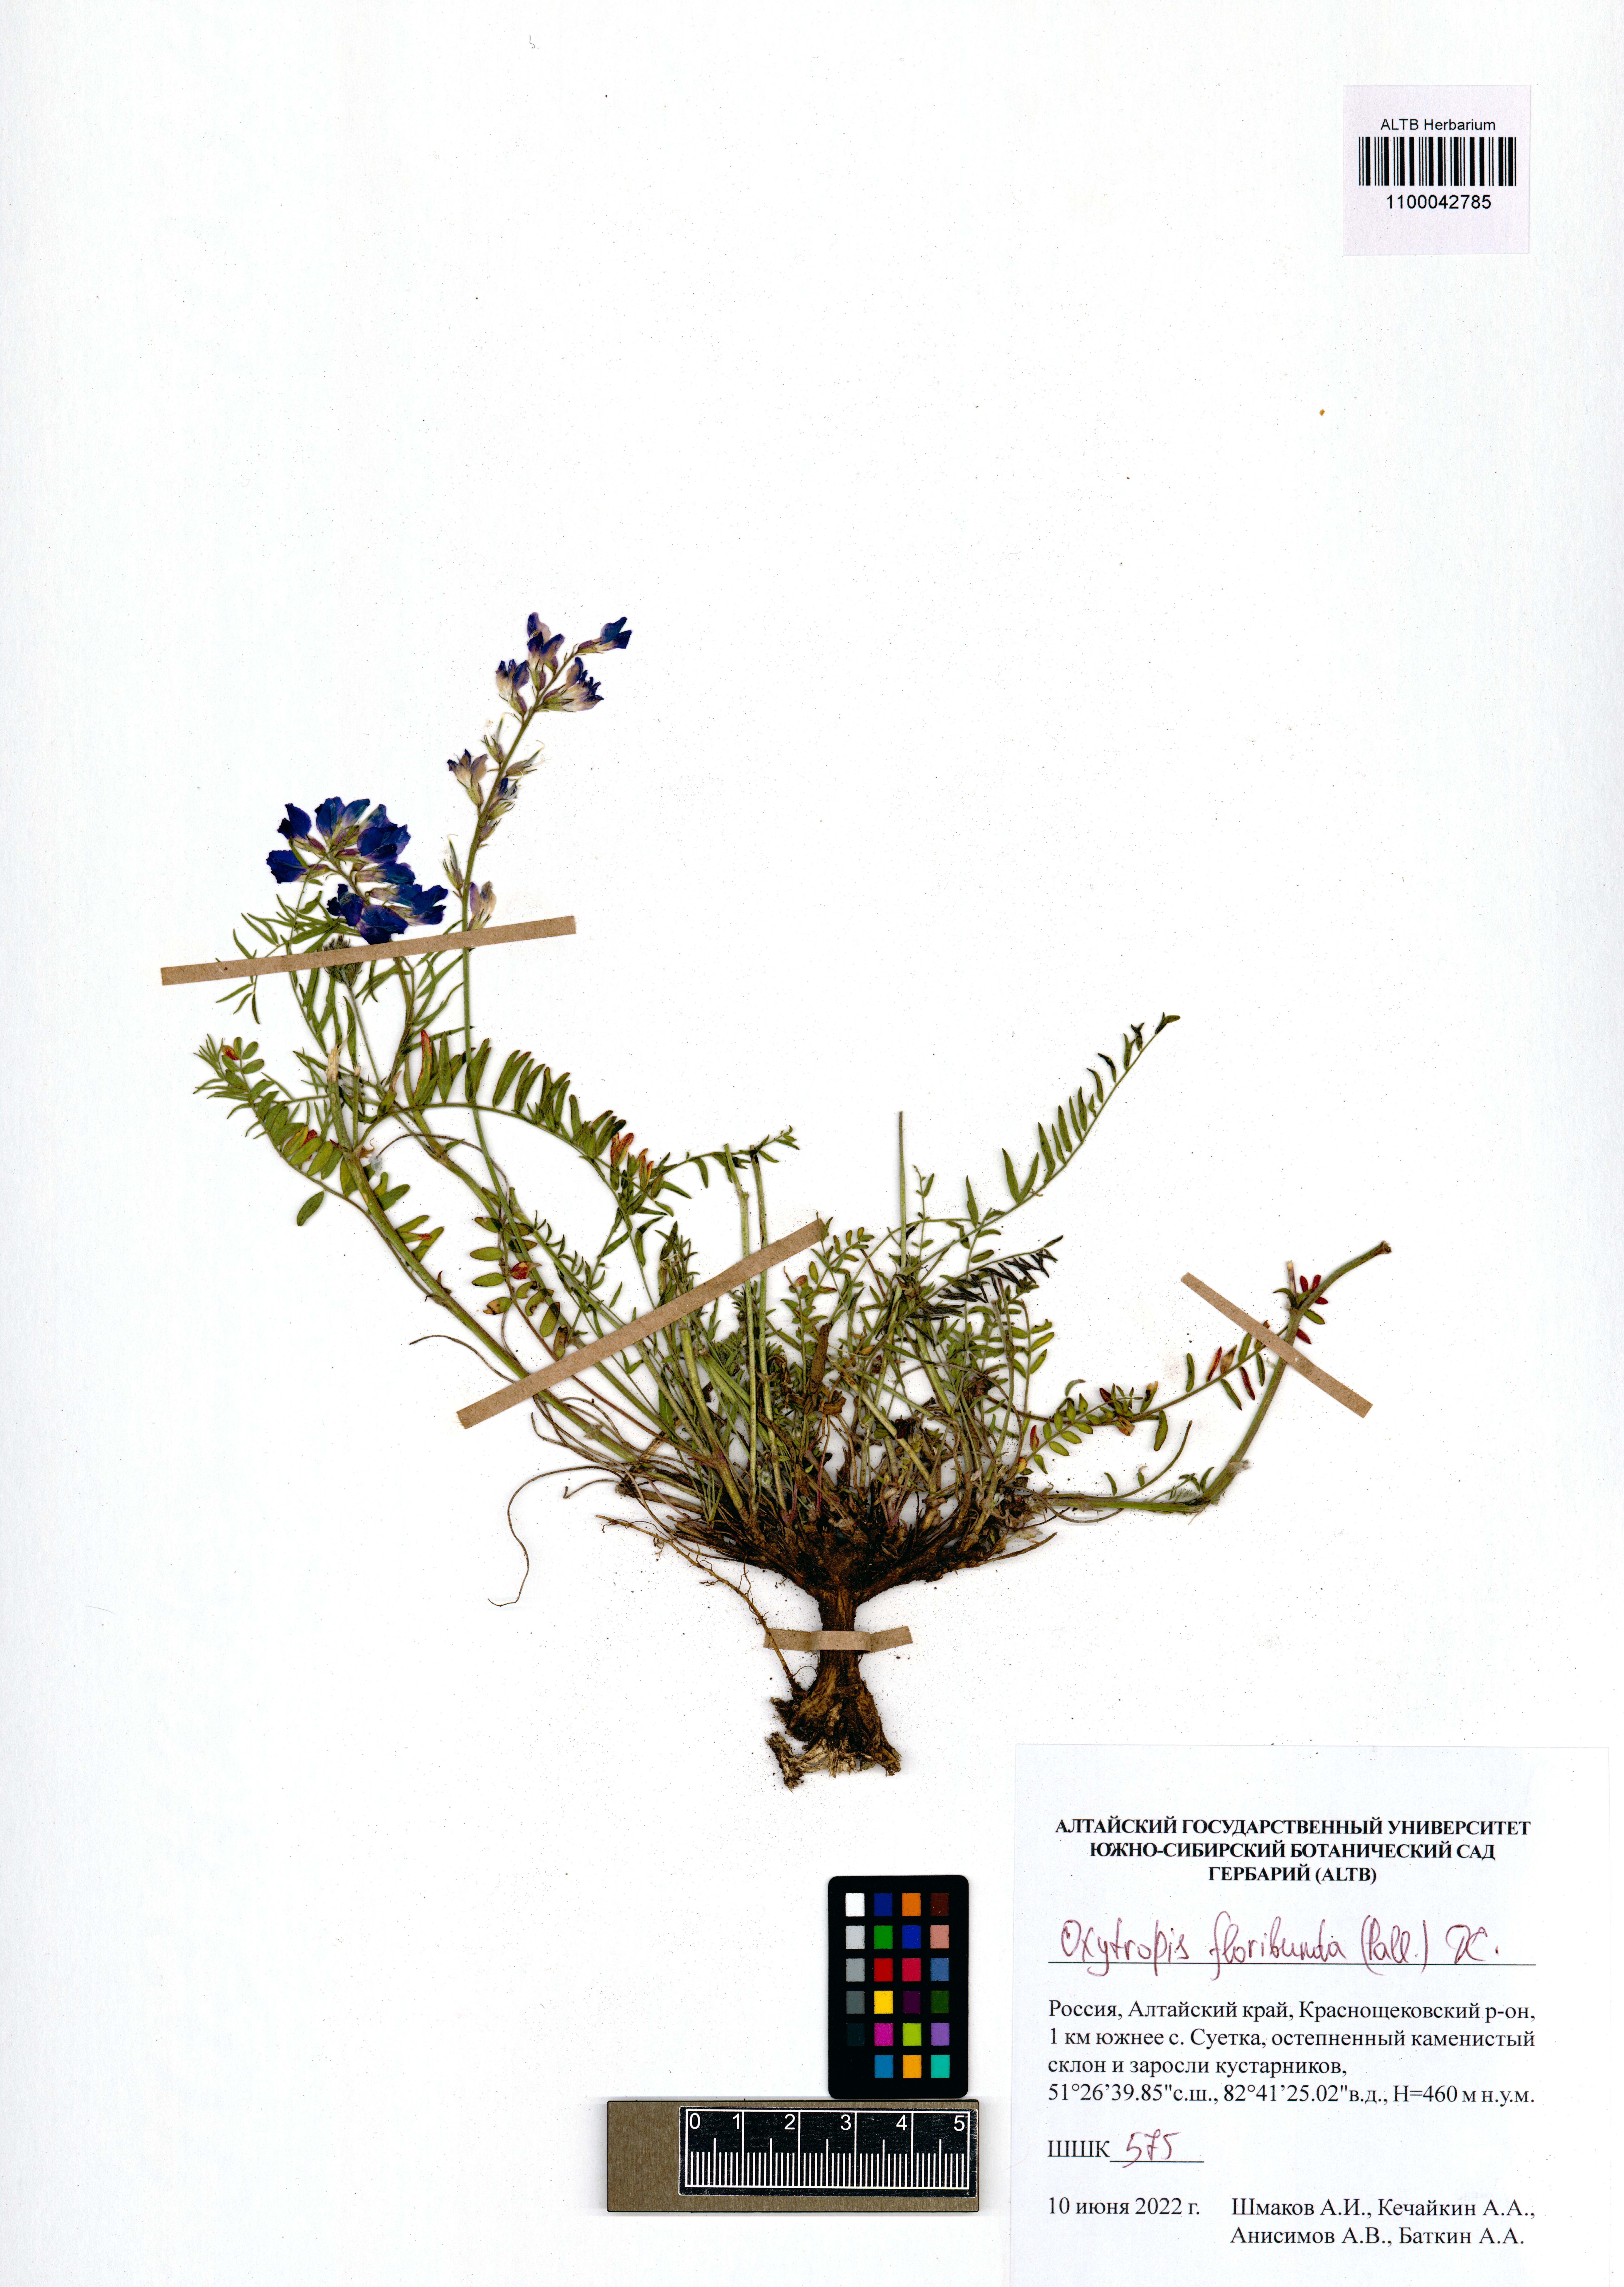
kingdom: Plantae
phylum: Tracheophyta
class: Magnoliopsida
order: Fabales
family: Fabaceae
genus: Oxytropis
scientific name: Oxytropis floribunda
